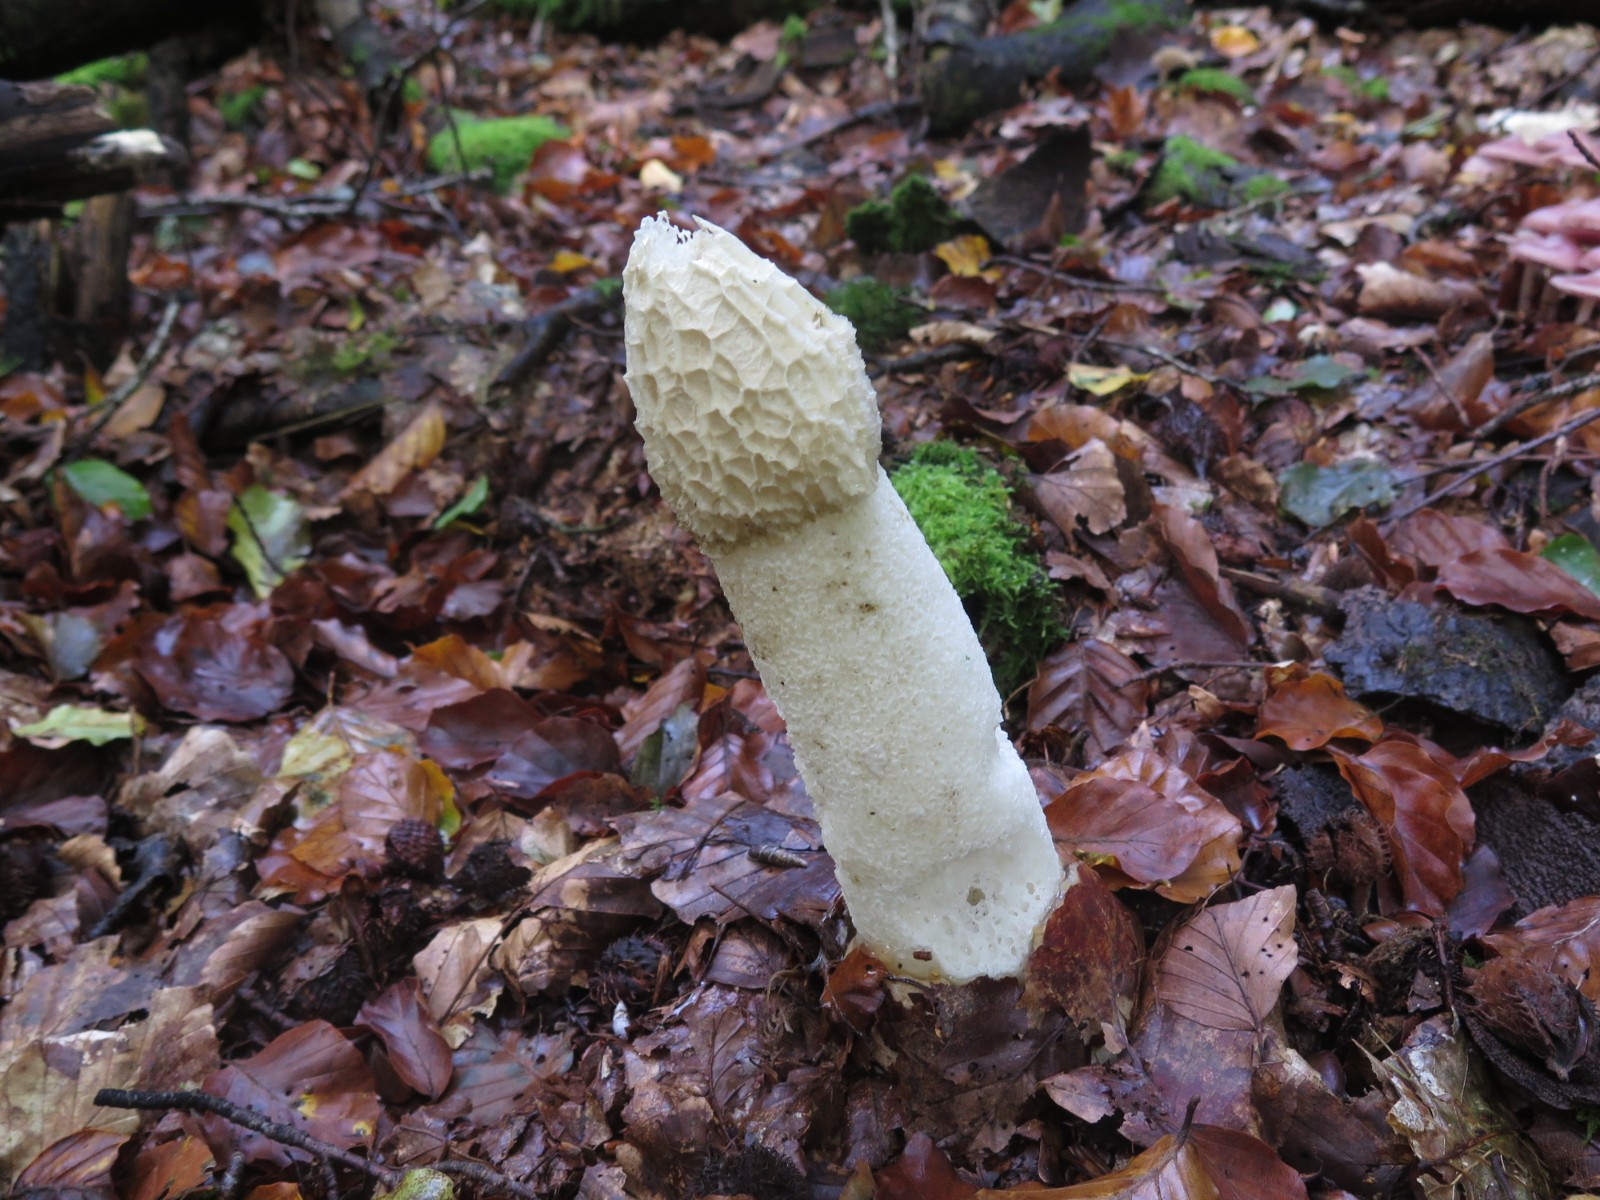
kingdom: Fungi
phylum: Basidiomycota
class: Agaricomycetes
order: Phallales
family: Phallaceae
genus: Phallus
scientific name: Phallus impudicus
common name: almindelig stinksvamp
